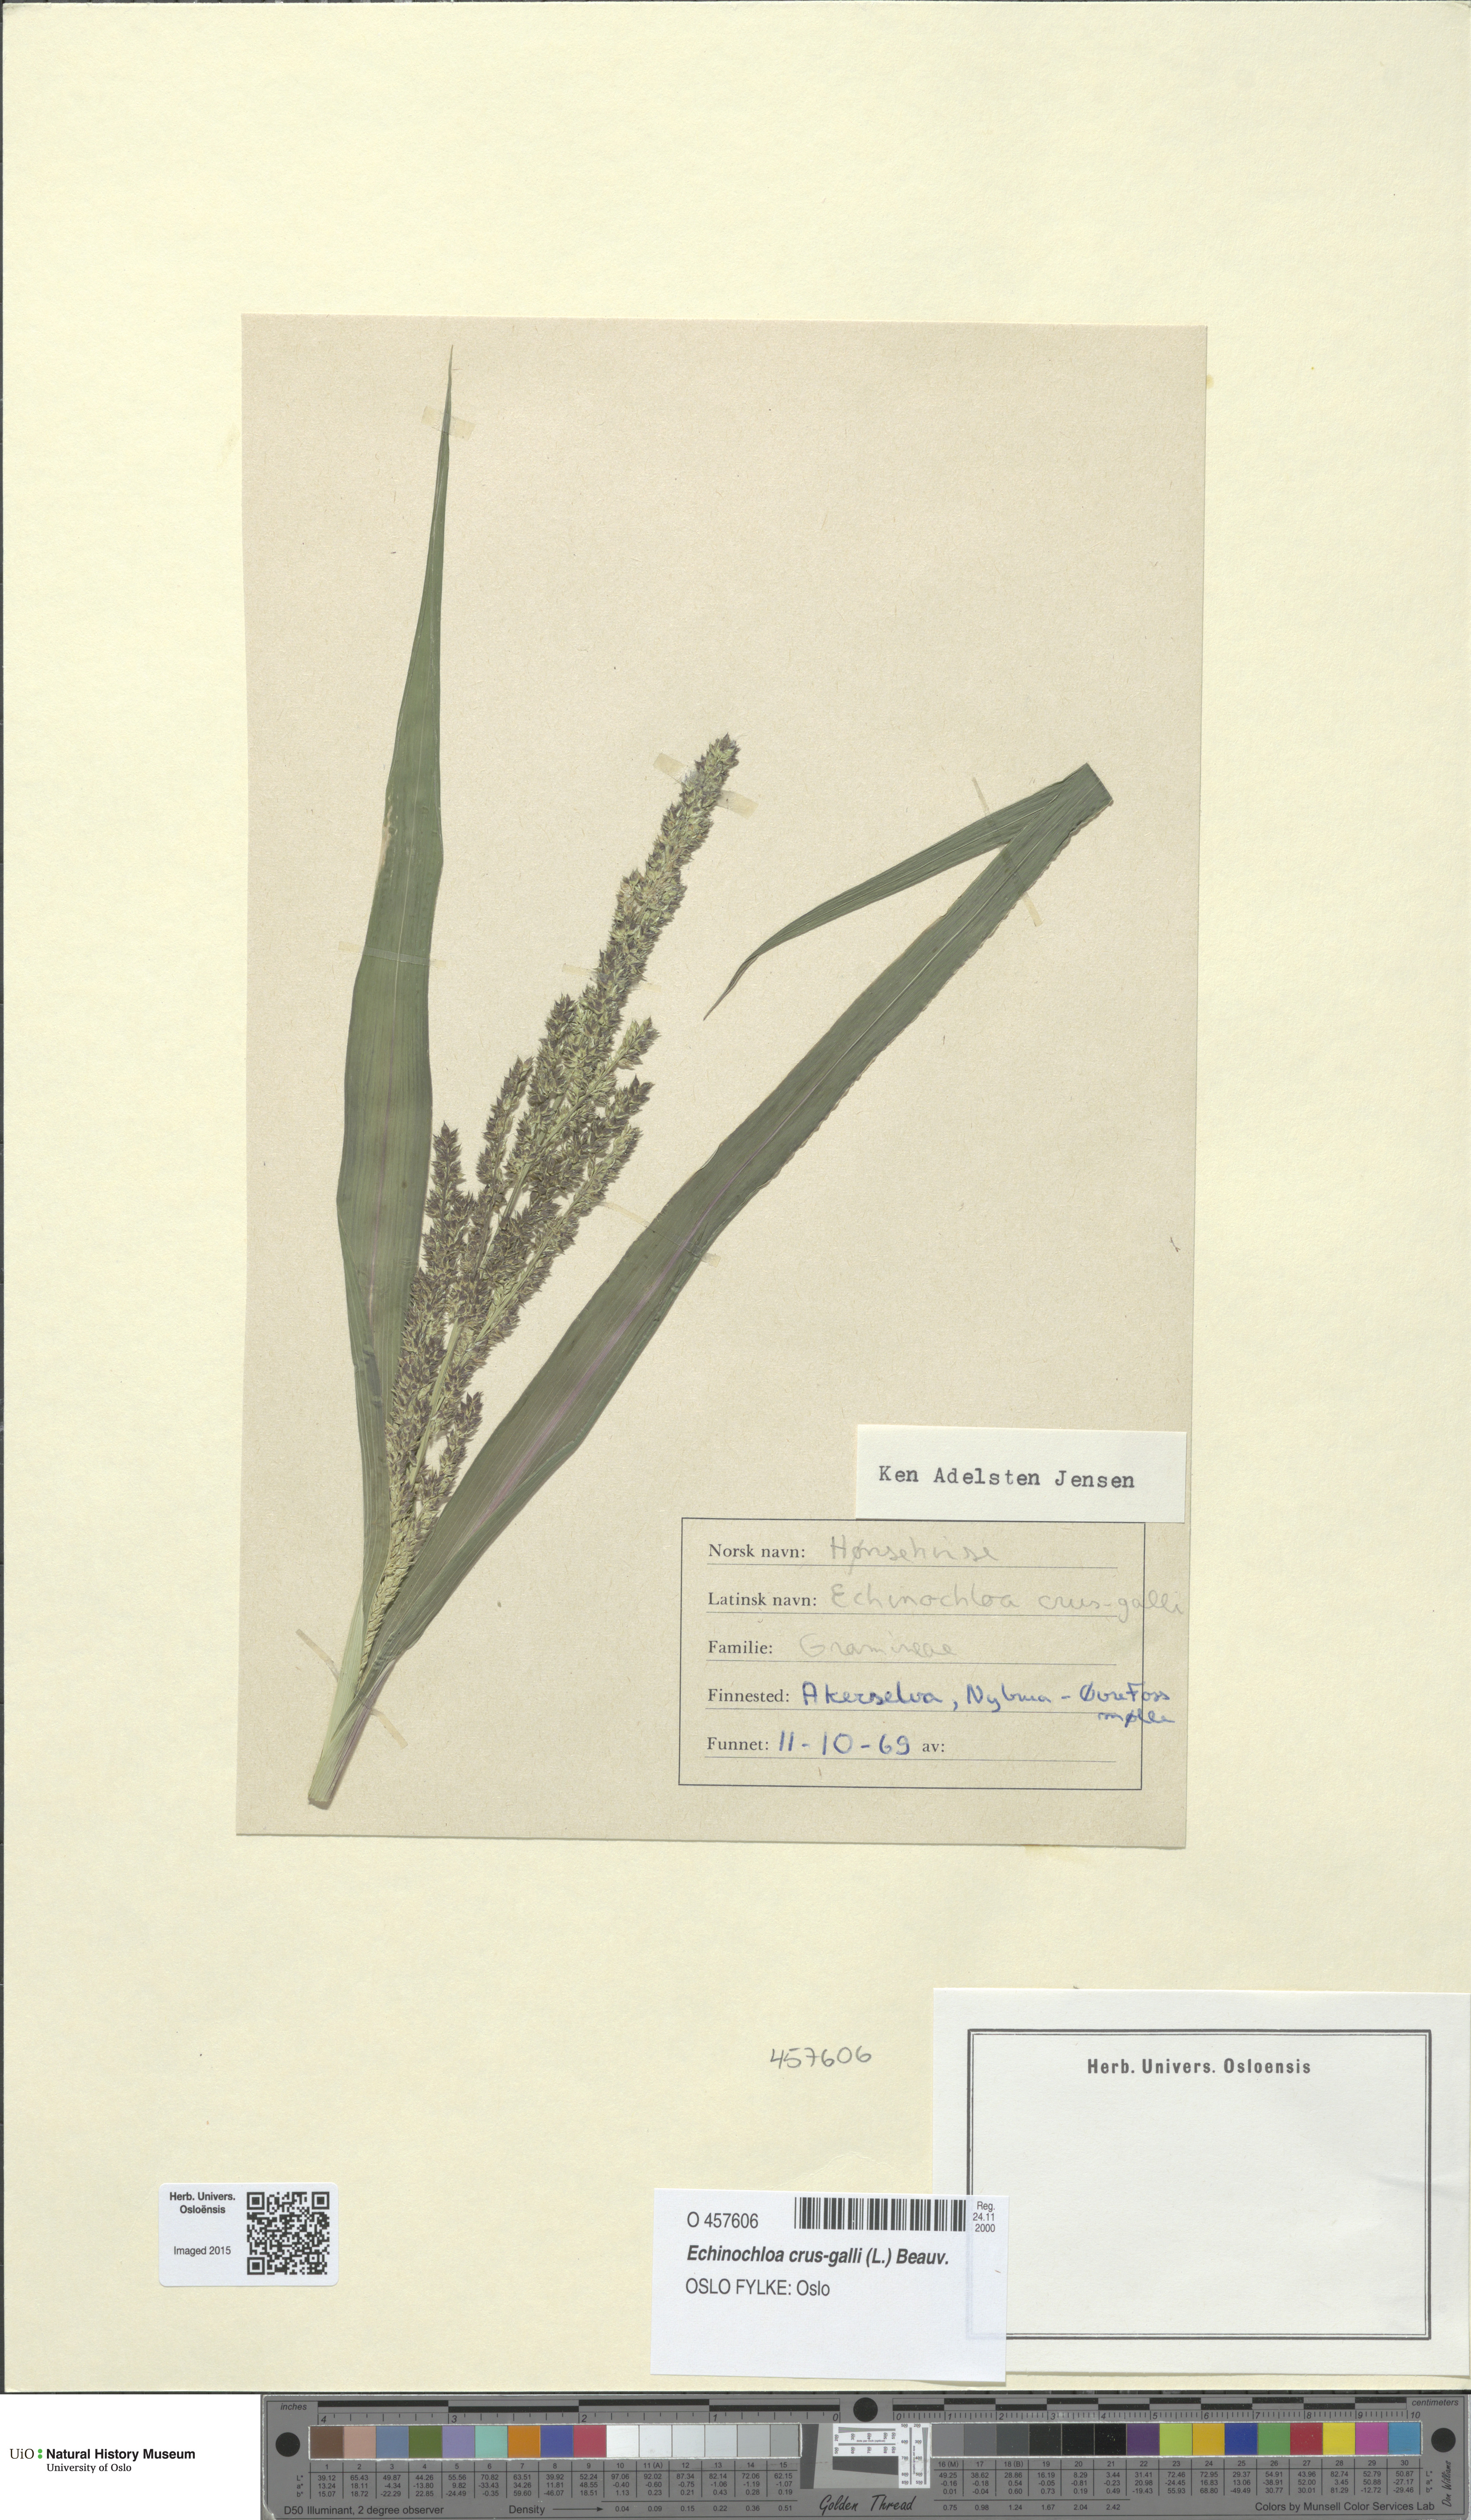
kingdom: Plantae
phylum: Tracheophyta
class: Liliopsida
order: Poales
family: Poaceae
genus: Echinochloa
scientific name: Echinochloa crus-galli
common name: Cockspur
